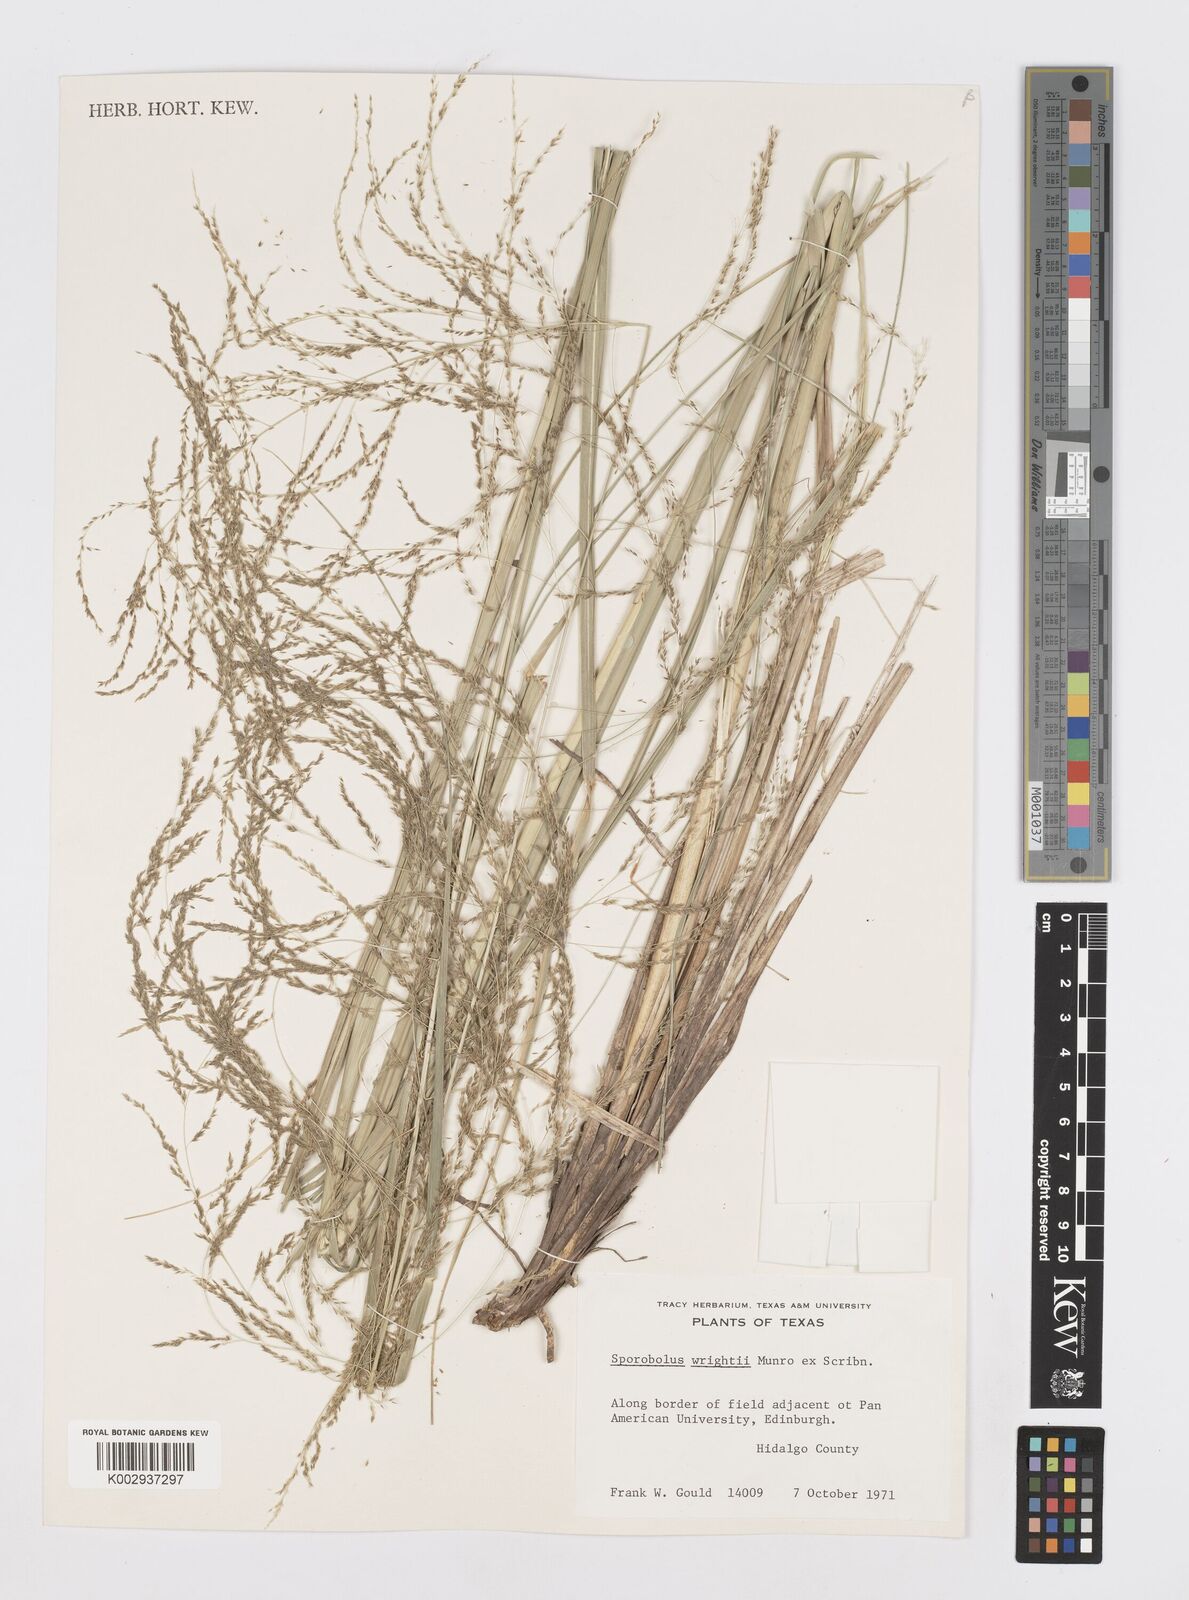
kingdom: Plantae
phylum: Tracheophyta
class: Liliopsida
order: Poales
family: Poaceae
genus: Sporobolus
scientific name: Sporobolus wrightii
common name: Big alkali sacaton
